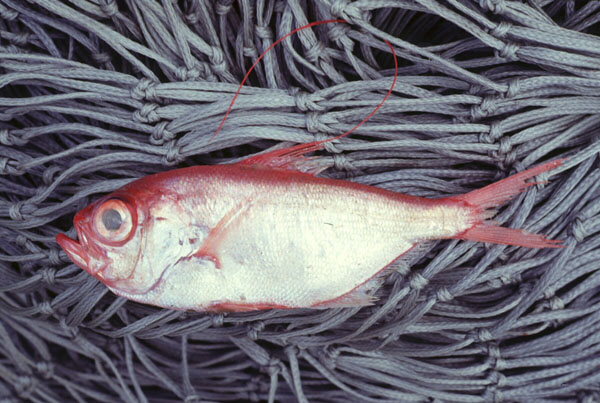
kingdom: Animalia
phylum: Chordata
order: Beryciformes
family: Berycidae
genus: Beryx
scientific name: Beryx splendens
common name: Lowe's beryx
